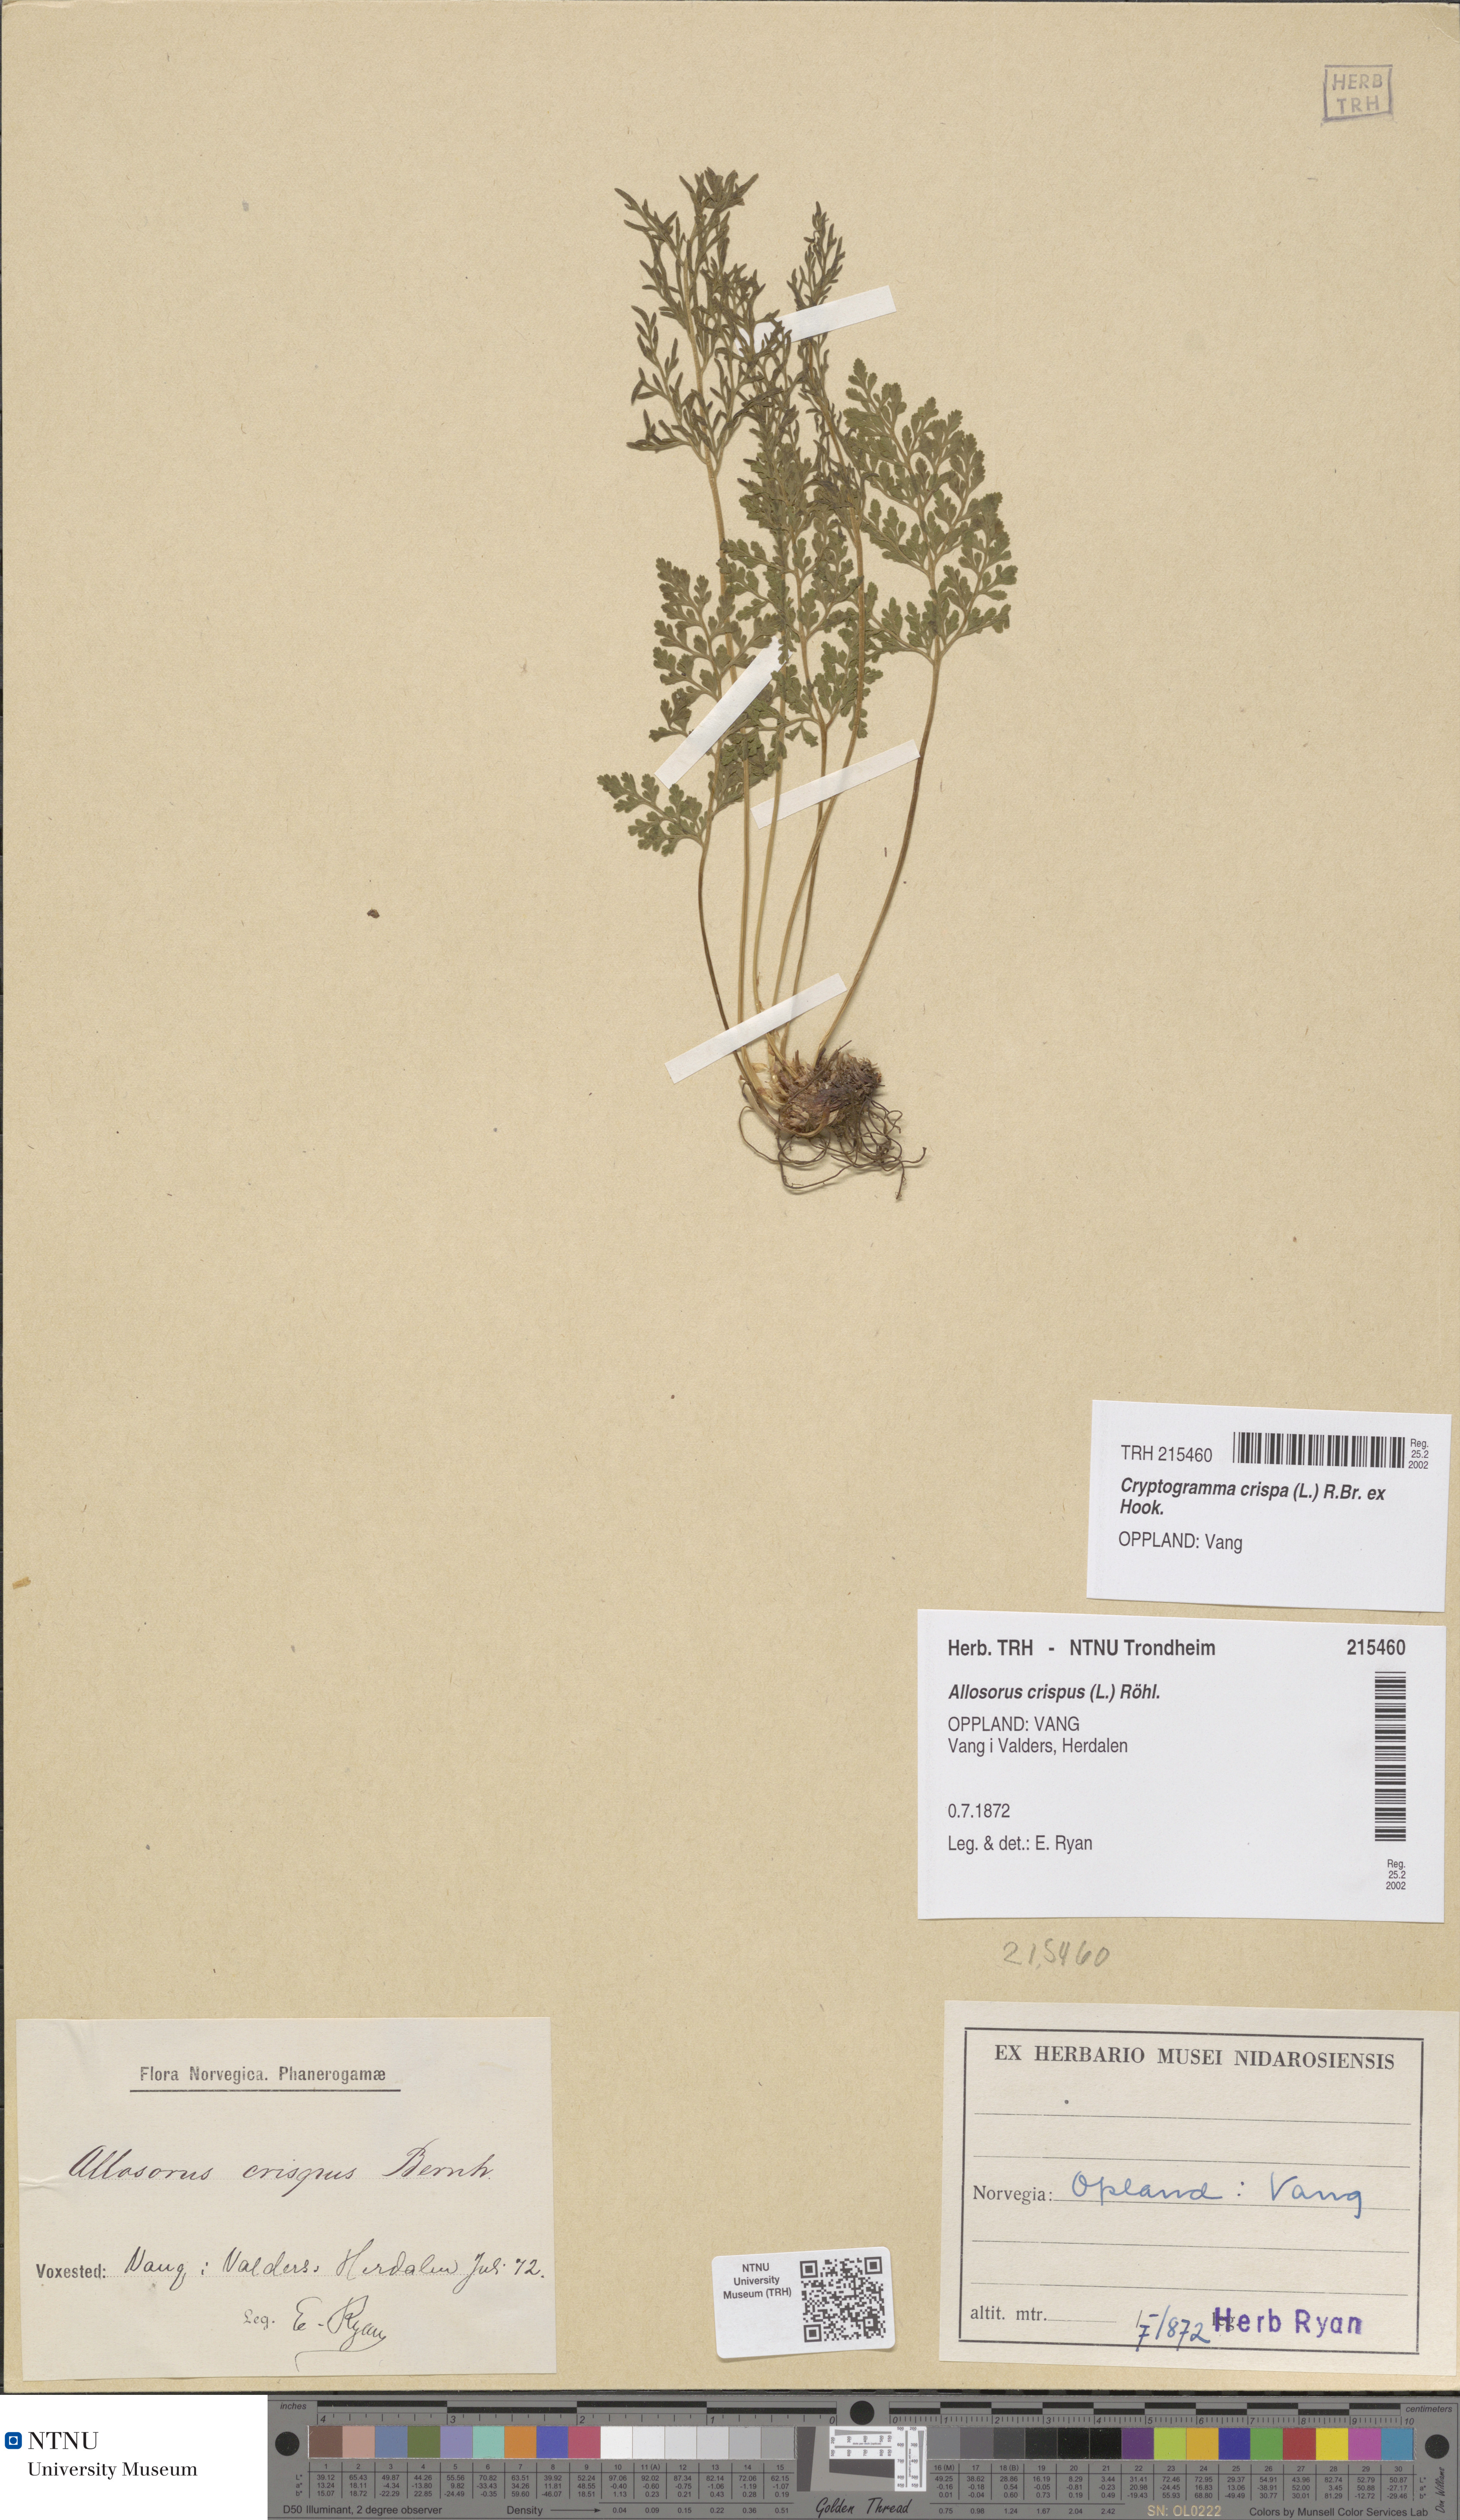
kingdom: Plantae
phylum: Tracheophyta
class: Polypodiopsida
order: Polypodiales
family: Pteridaceae
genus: Cryptogramma
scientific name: Cryptogramma crispa
